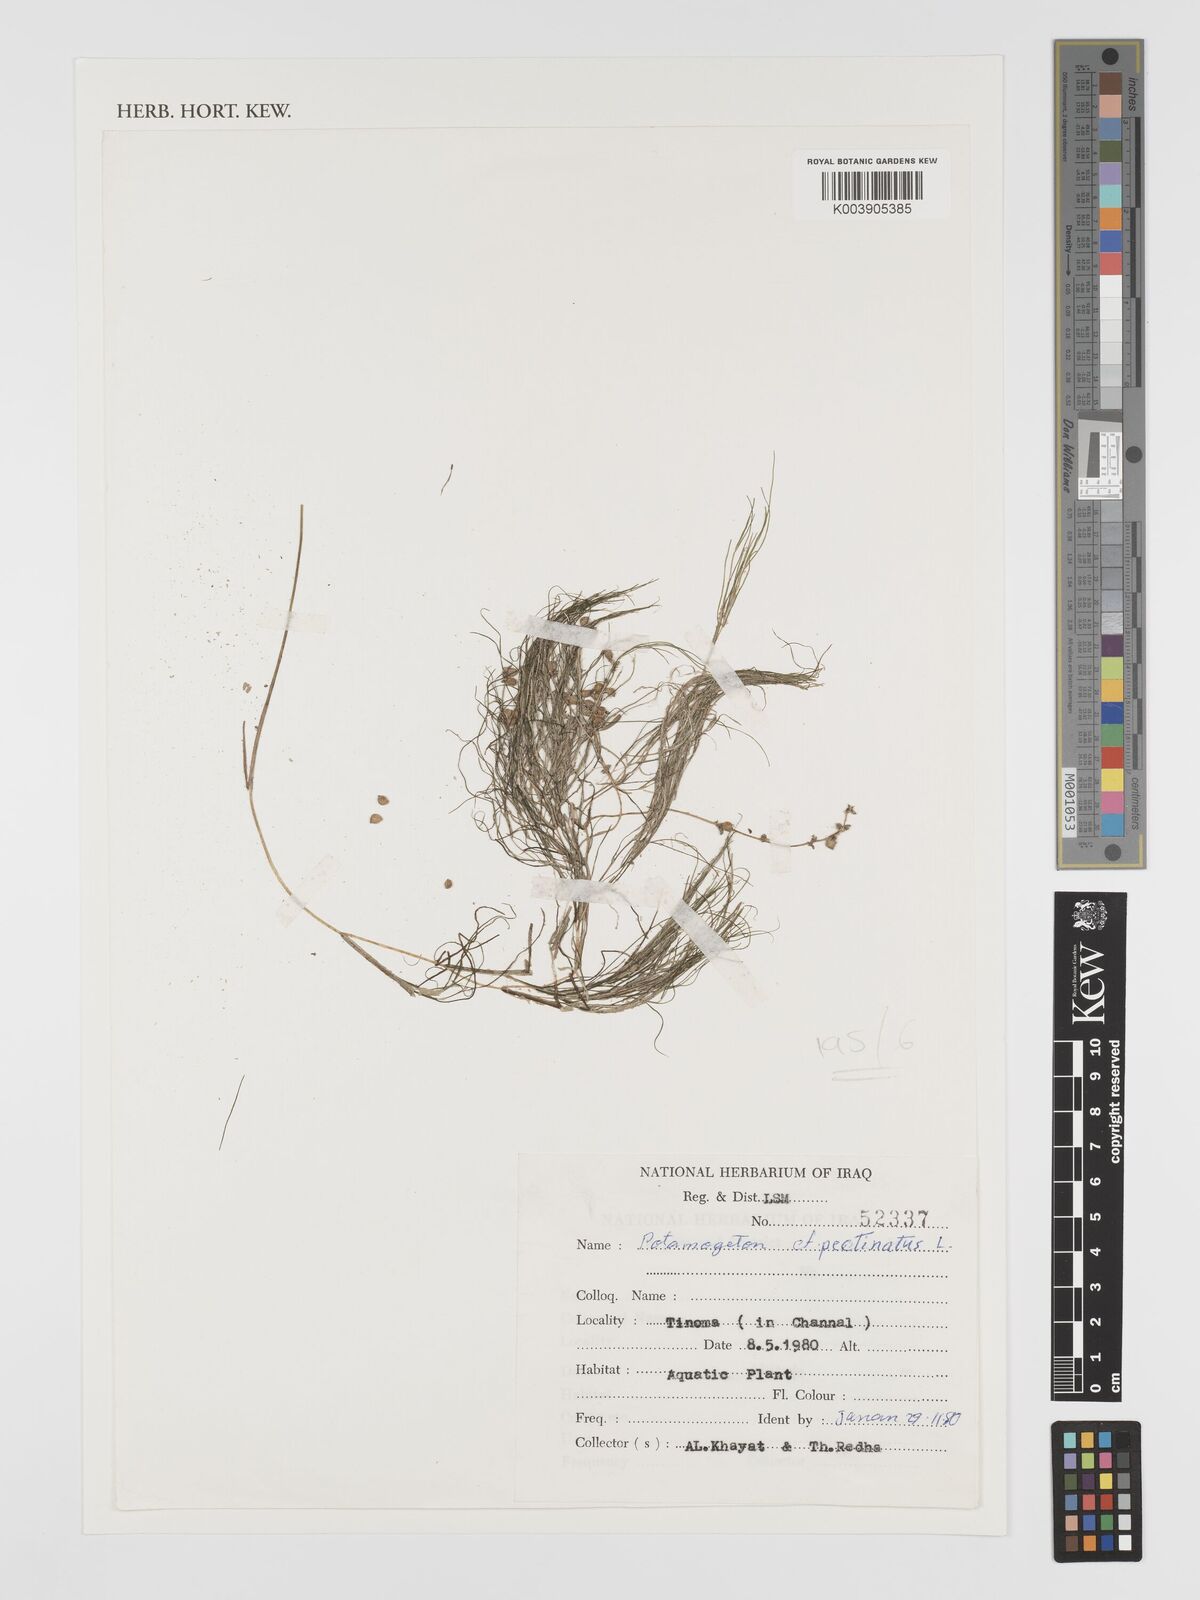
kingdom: Plantae
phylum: Tracheophyta
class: Liliopsida
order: Alismatales
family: Potamogetonaceae
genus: Stuckenia
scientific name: Stuckenia pectinata
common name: Sago pondweed
